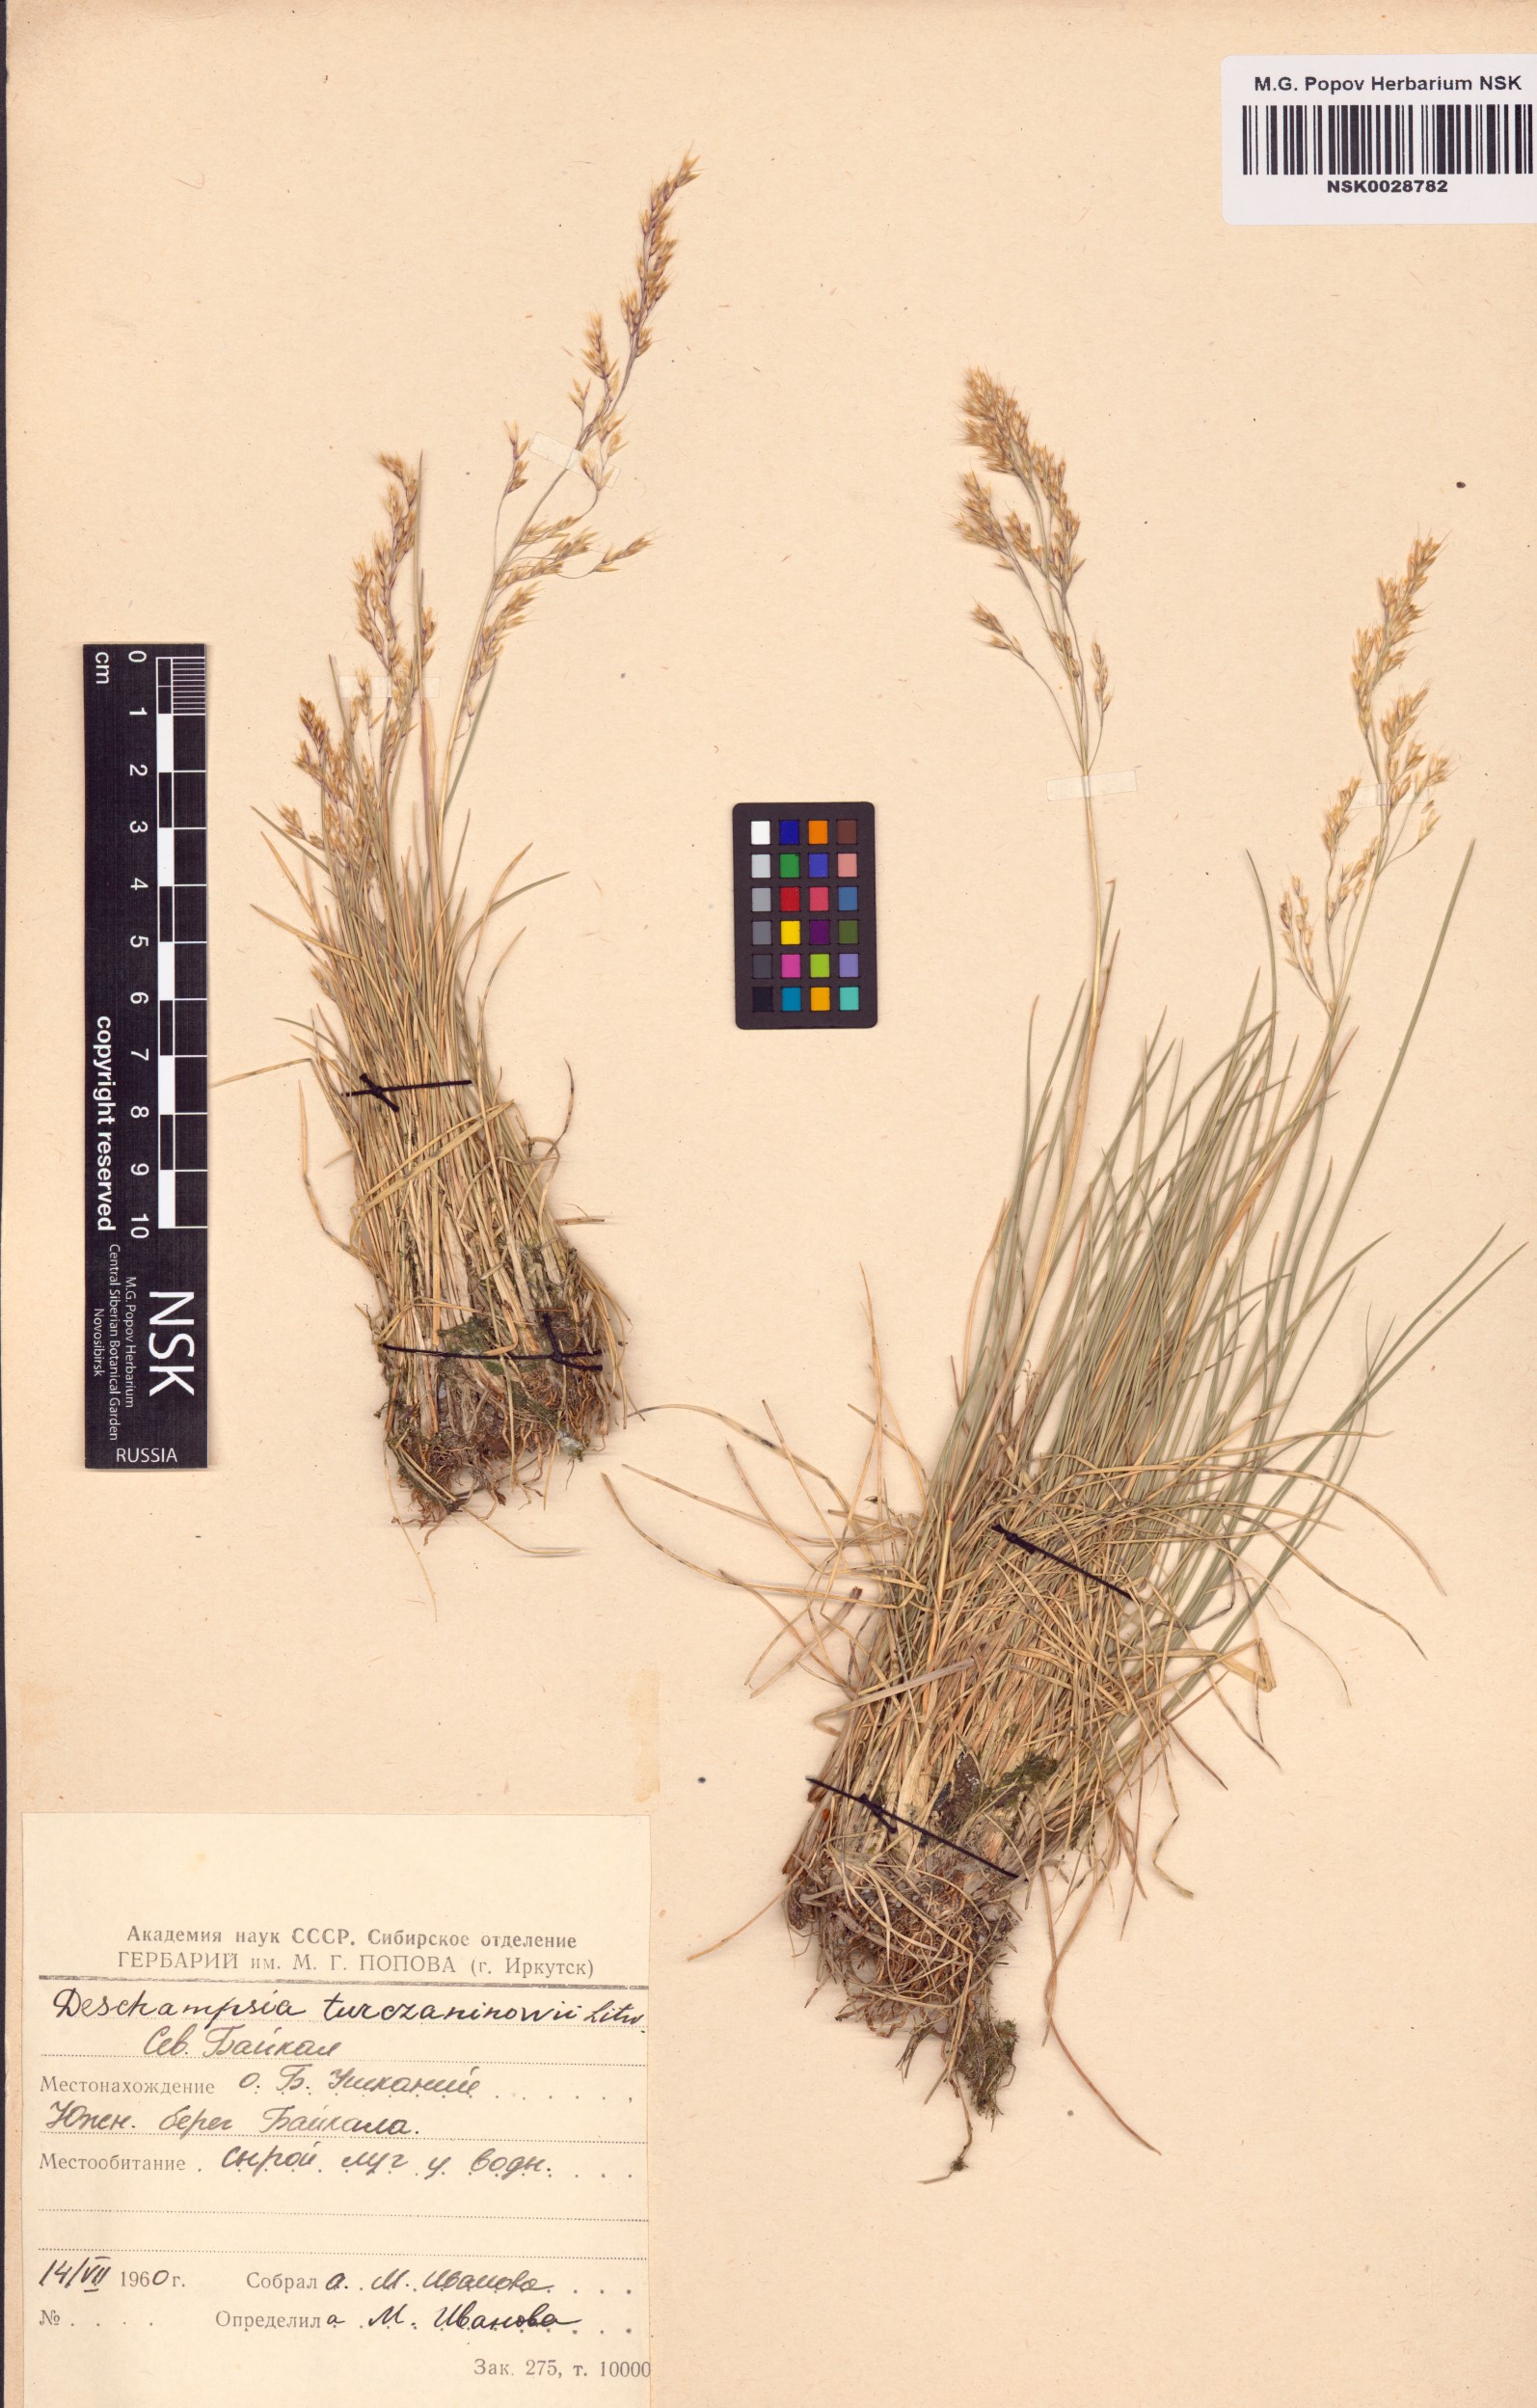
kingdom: Plantae
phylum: Tracheophyta
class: Liliopsida
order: Poales
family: Poaceae
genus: Deschampsia
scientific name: Deschampsia cespitosa
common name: Tufted hair-grass
